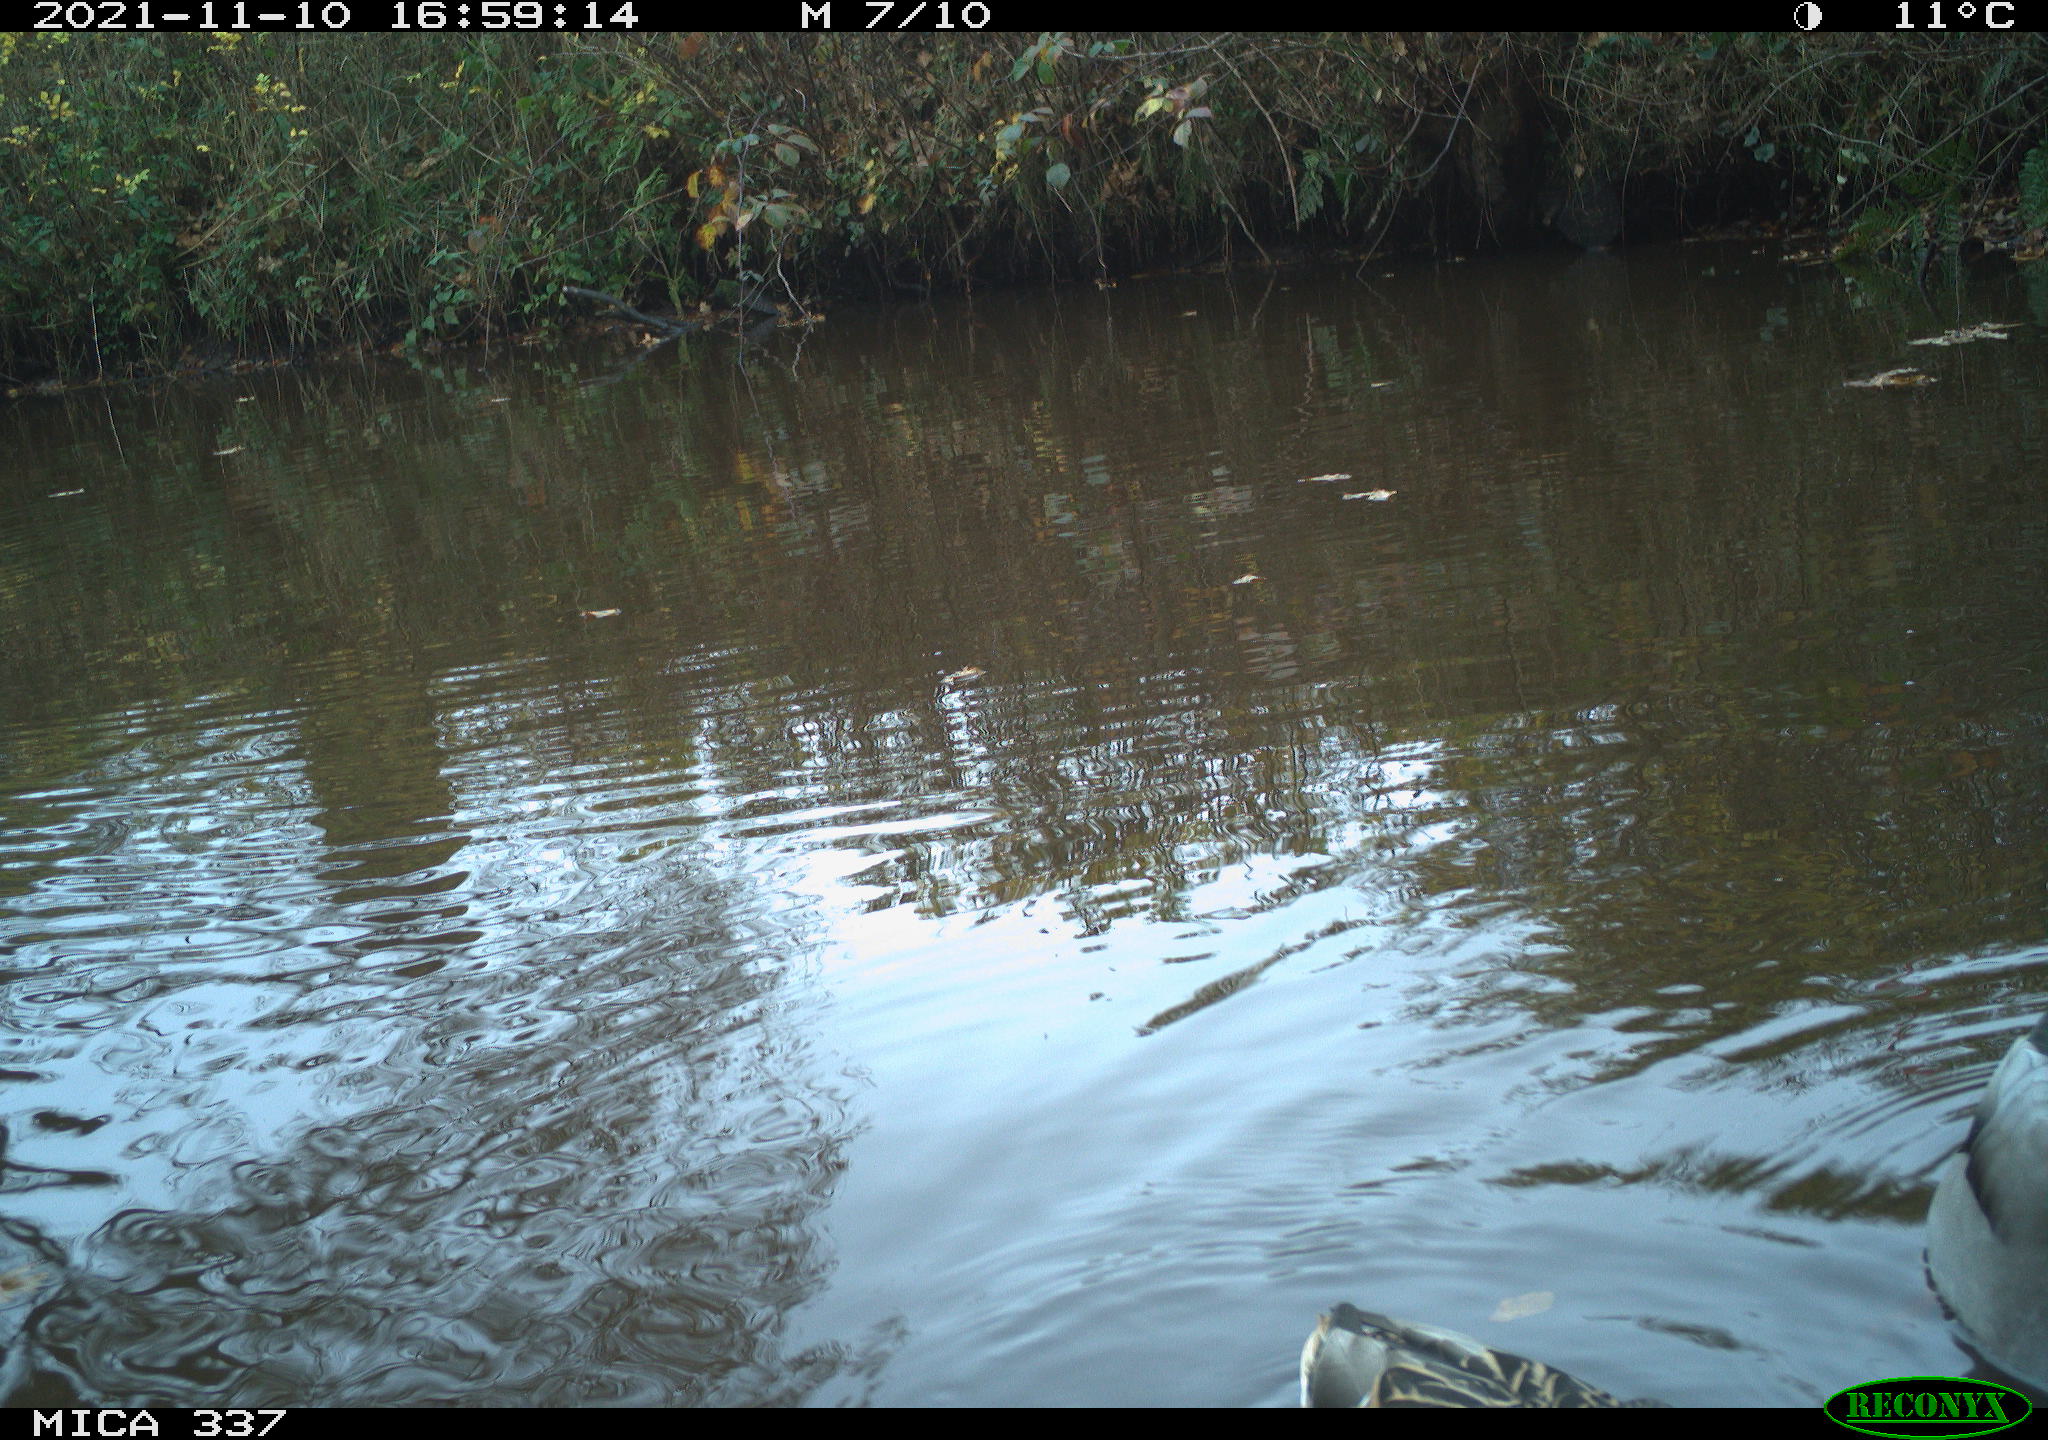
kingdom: Animalia
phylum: Chordata
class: Aves
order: Anseriformes
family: Anatidae
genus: Anas
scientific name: Anas platyrhynchos
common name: Mallard
